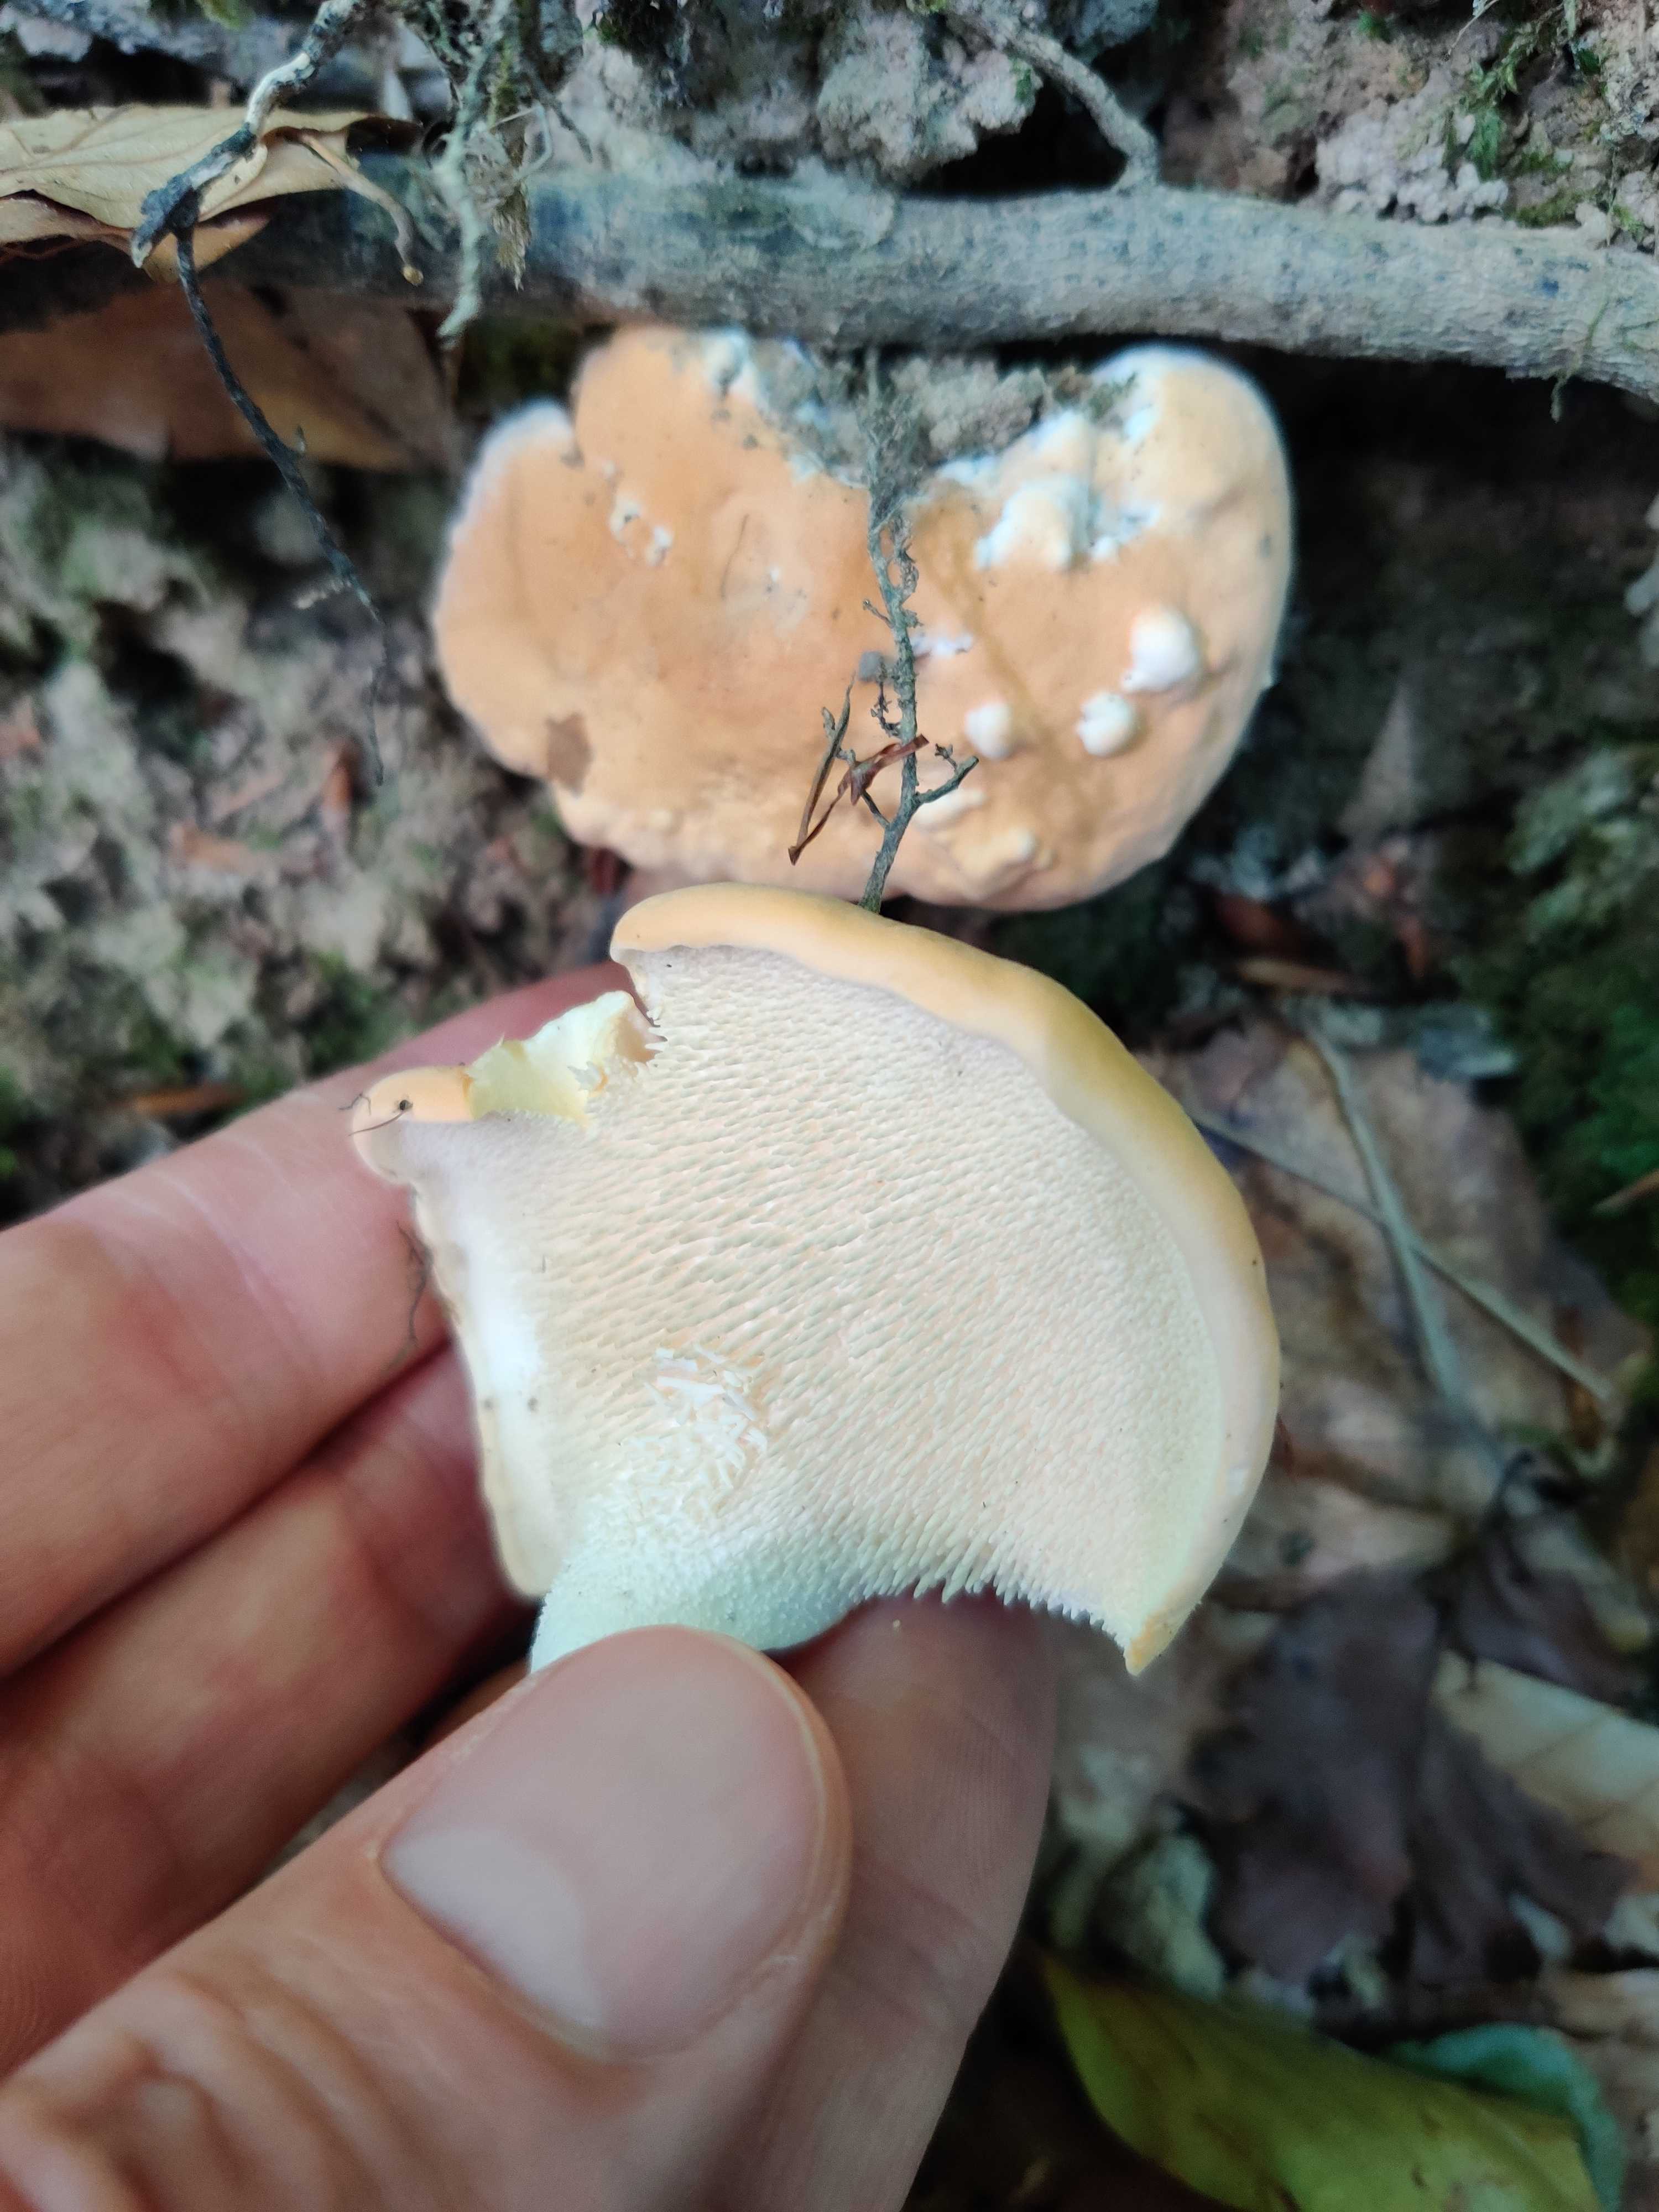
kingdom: Fungi
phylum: Basidiomycota
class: Agaricomycetes
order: Cantharellales
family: Hydnaceae
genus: Hydnum
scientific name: Hydnum
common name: pigsvamp
